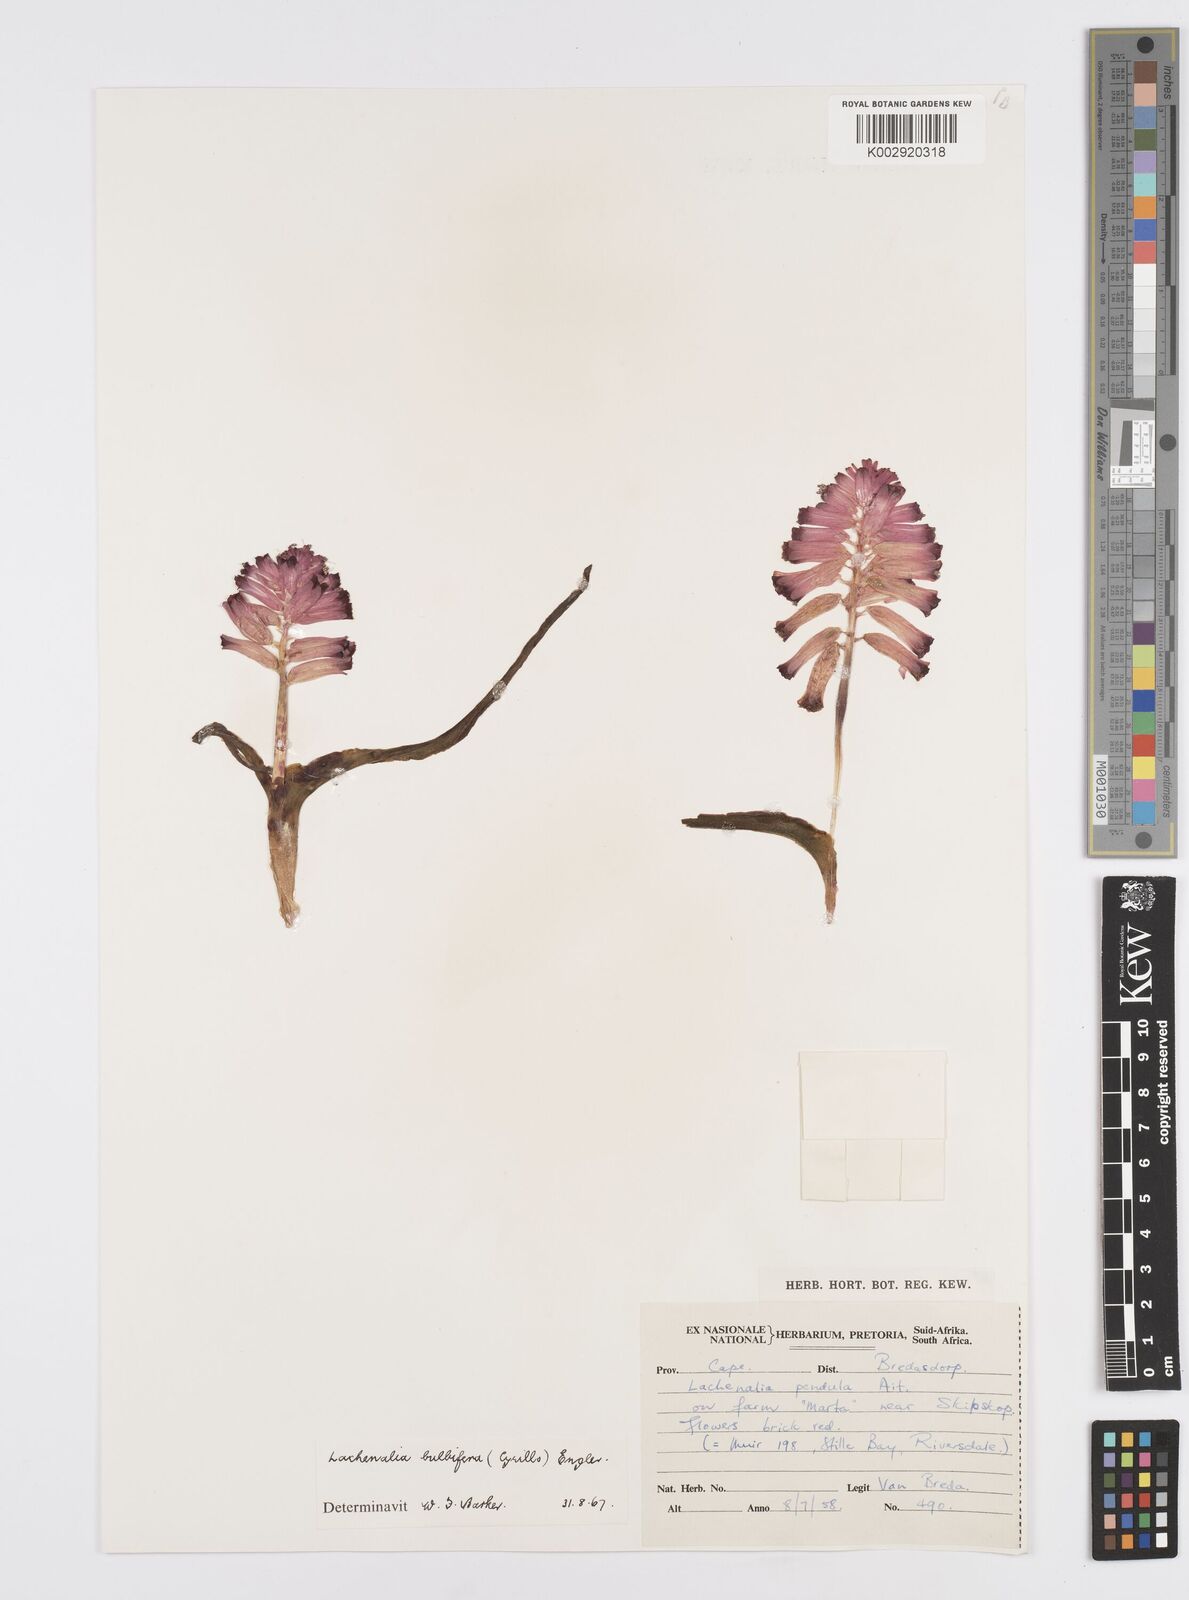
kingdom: Plantae
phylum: Tracheophyta
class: Liliopsida
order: Asparagales
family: Asparagaceae
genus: Lachenalia
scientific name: Lachenalia bulbifera
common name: Red lachenalia
